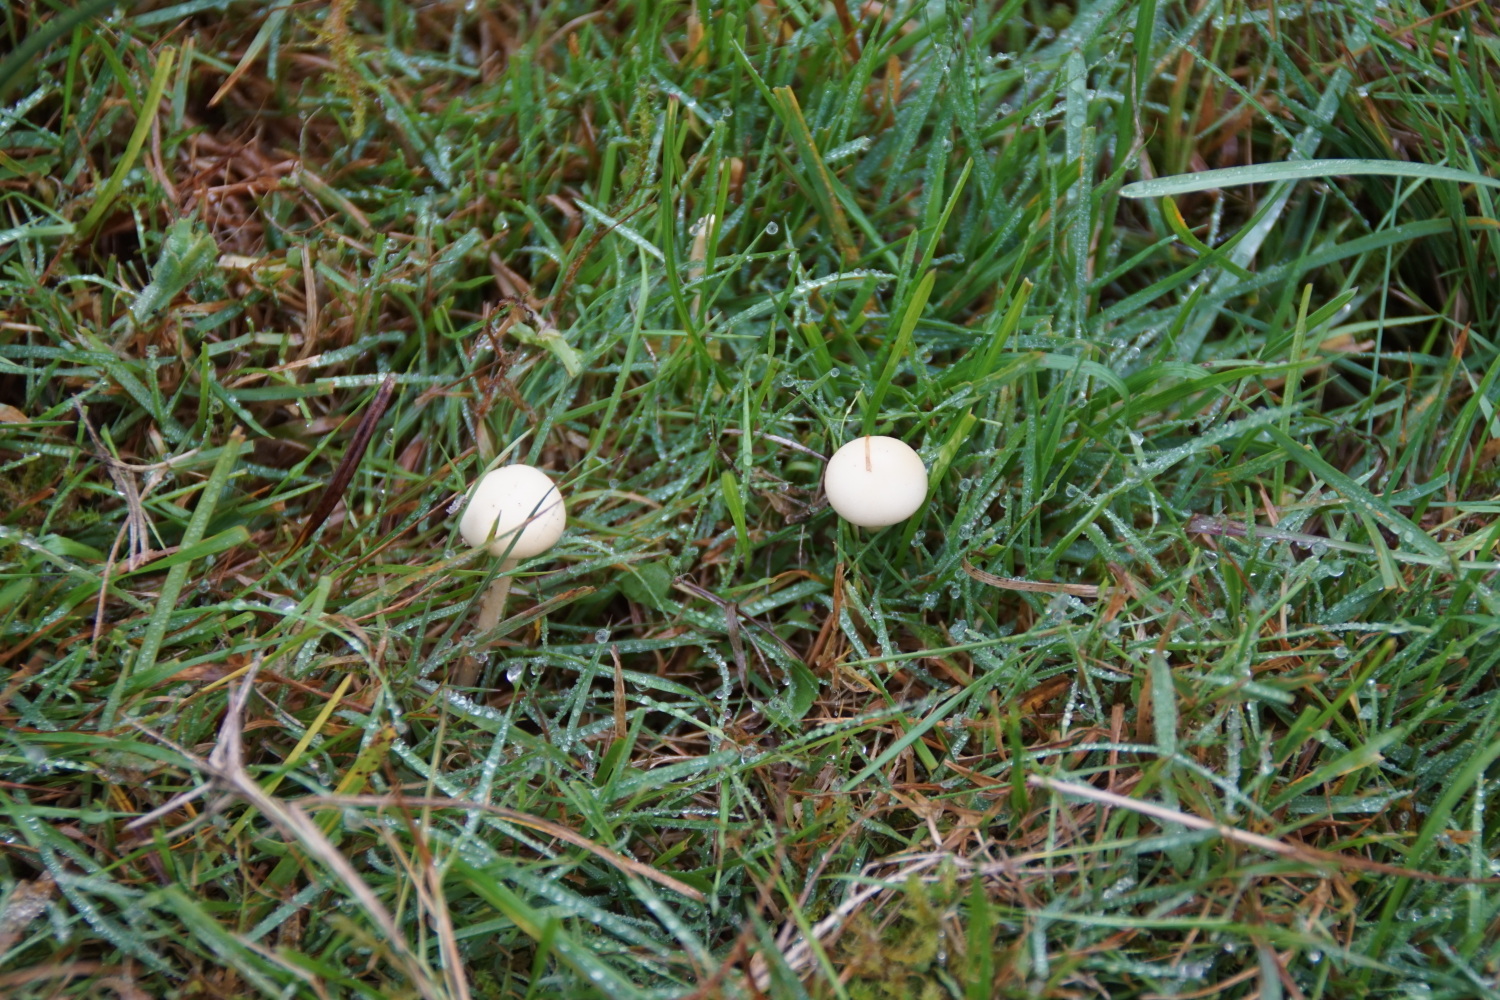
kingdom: Fungi
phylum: Basidiomycota
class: Agaricomycetes
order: Agaricales
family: Strophariaceae
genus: Protostropharia
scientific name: Protostropharia semiglobata
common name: halvkugleformet bredblad
